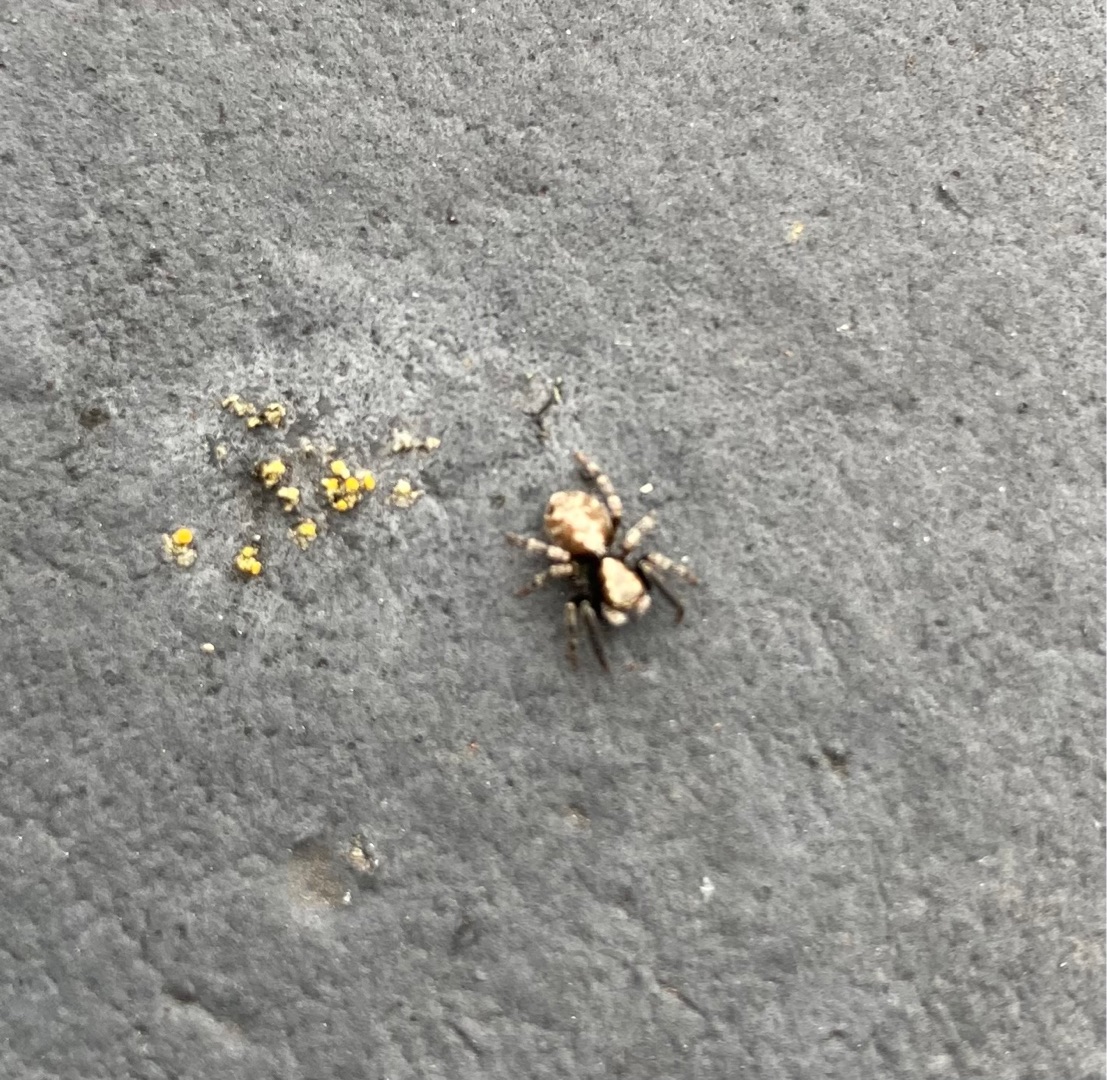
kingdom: Animalia
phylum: Arthropoda
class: Arachnida
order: Araneae
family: Salticidae
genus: Pseudeuophrys
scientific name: Pseudeuophrys lanigera
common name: Vinduesspringer
